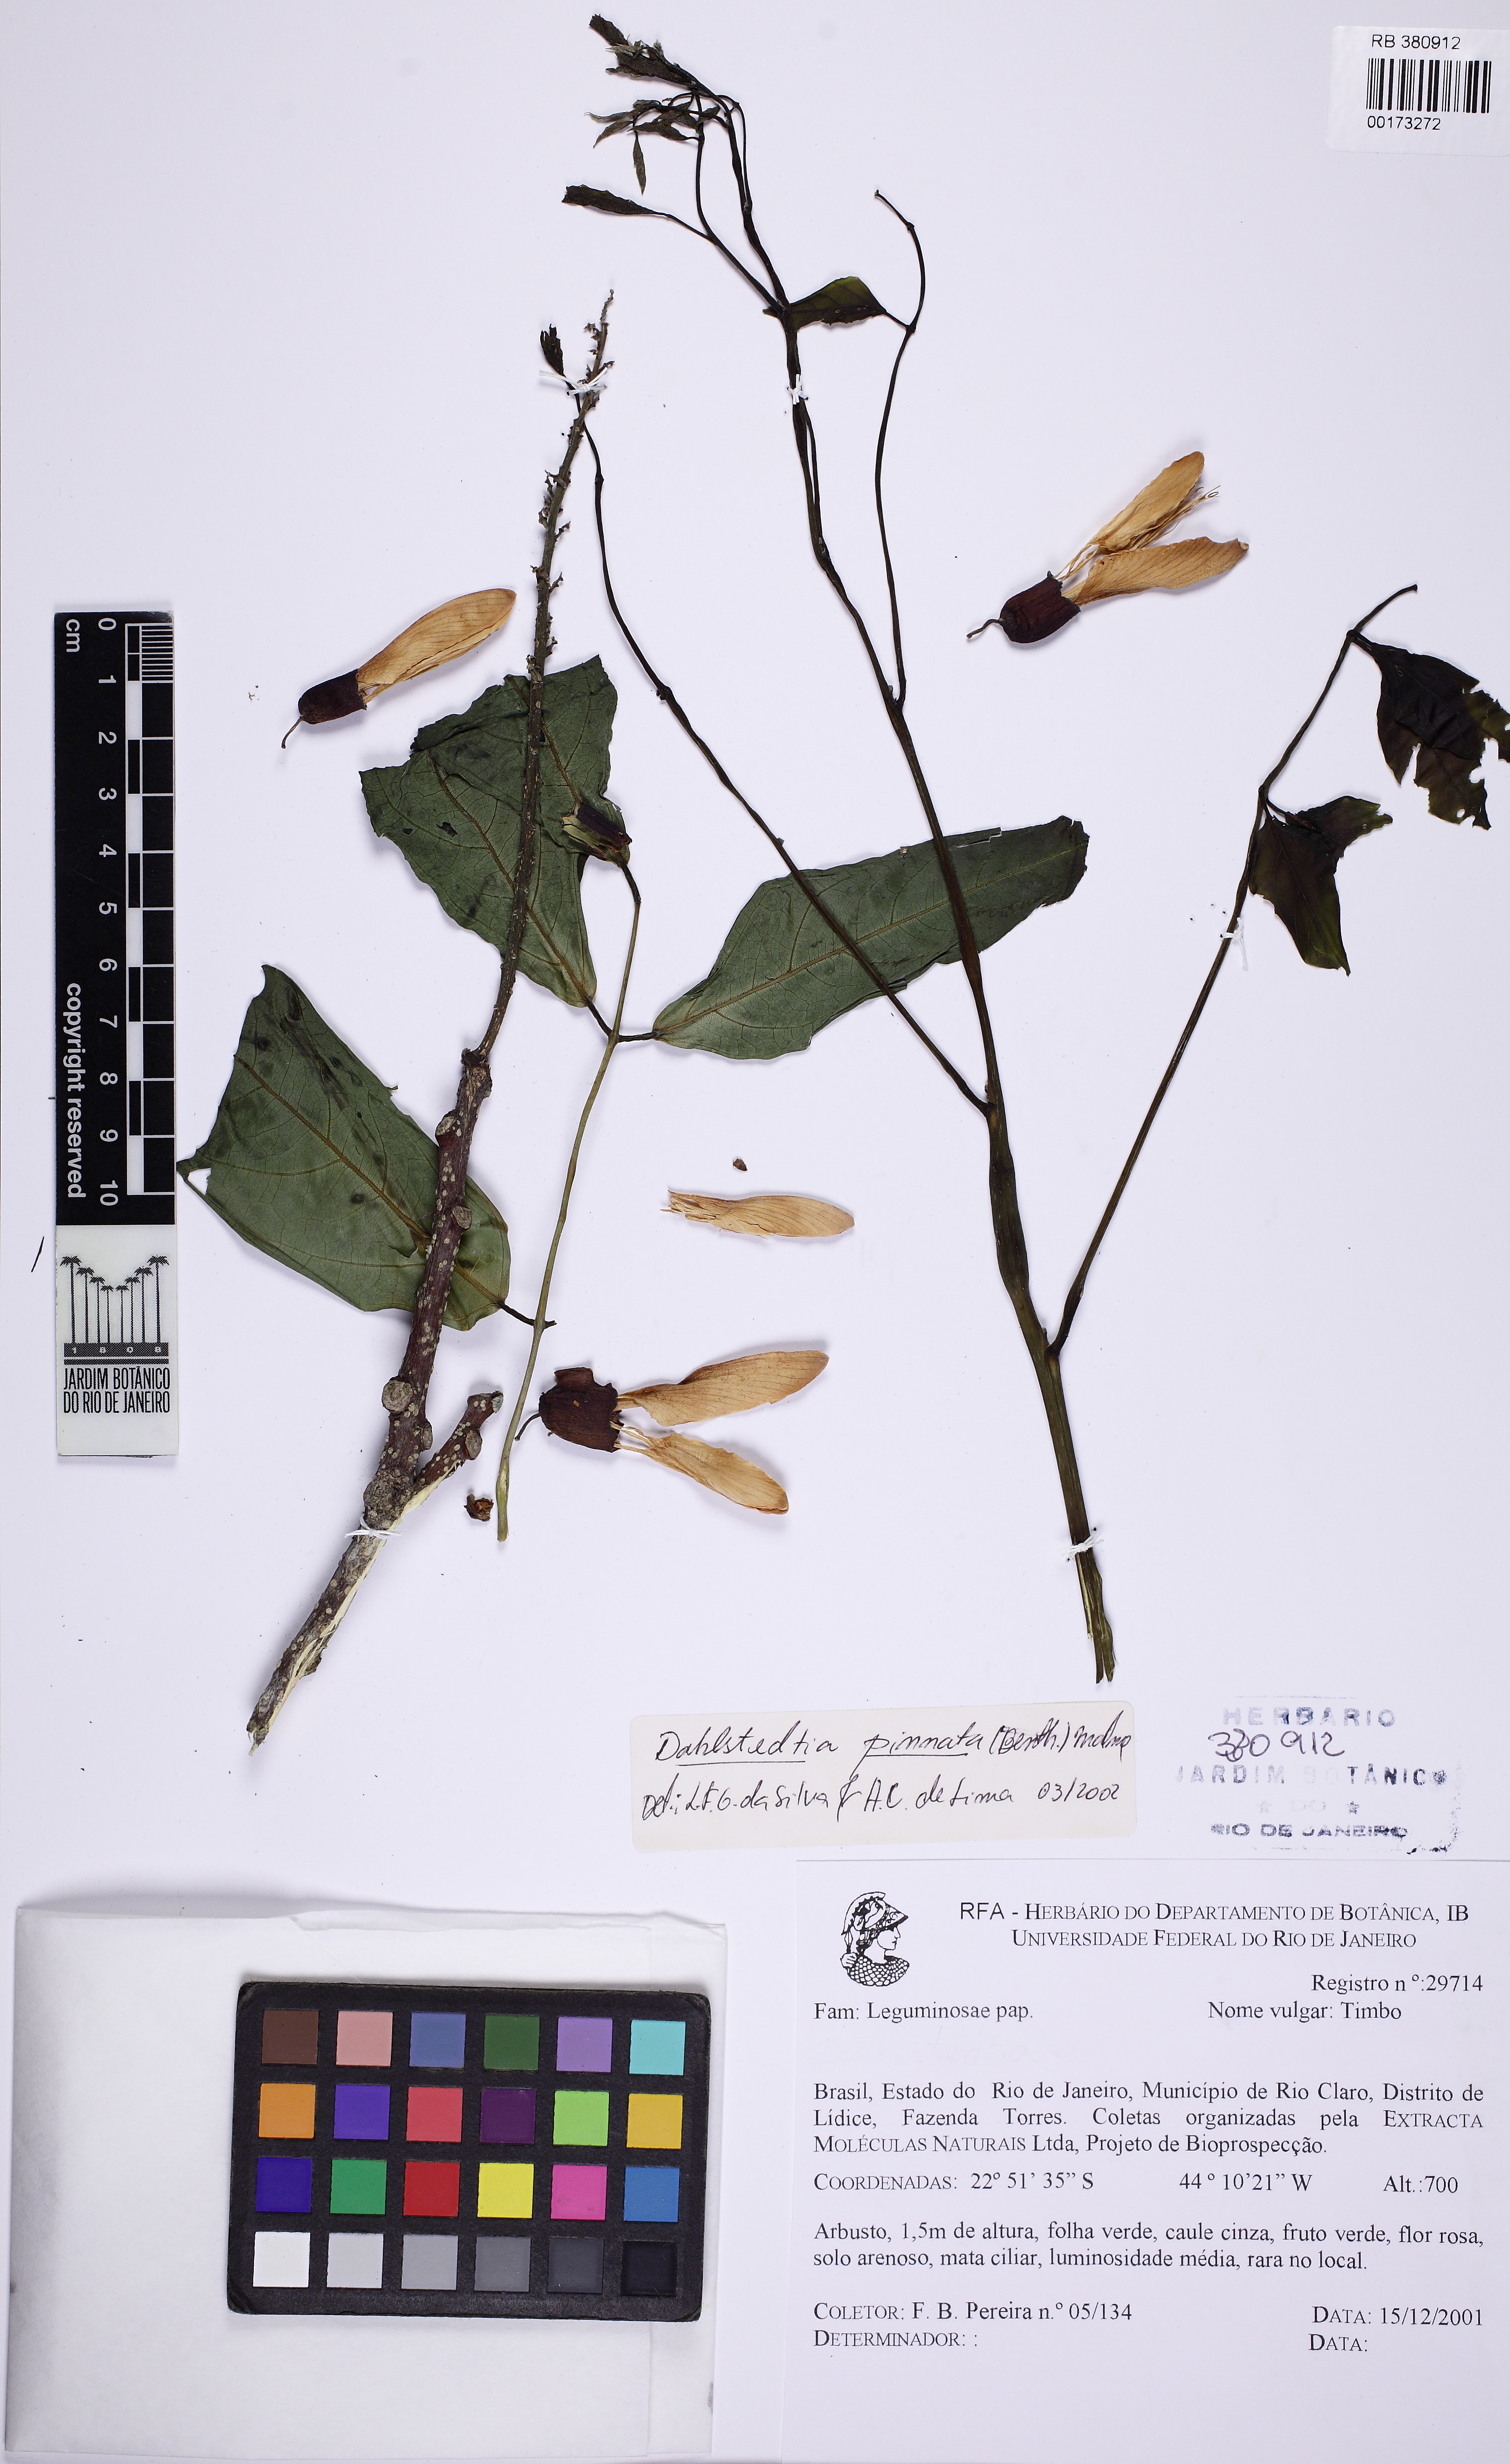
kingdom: Plantae
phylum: Tracheophyta
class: Magnoliopsida
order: Fabales
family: Fabaceae
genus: Dahlstedtia
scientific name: Dahlstedtia pinnata
